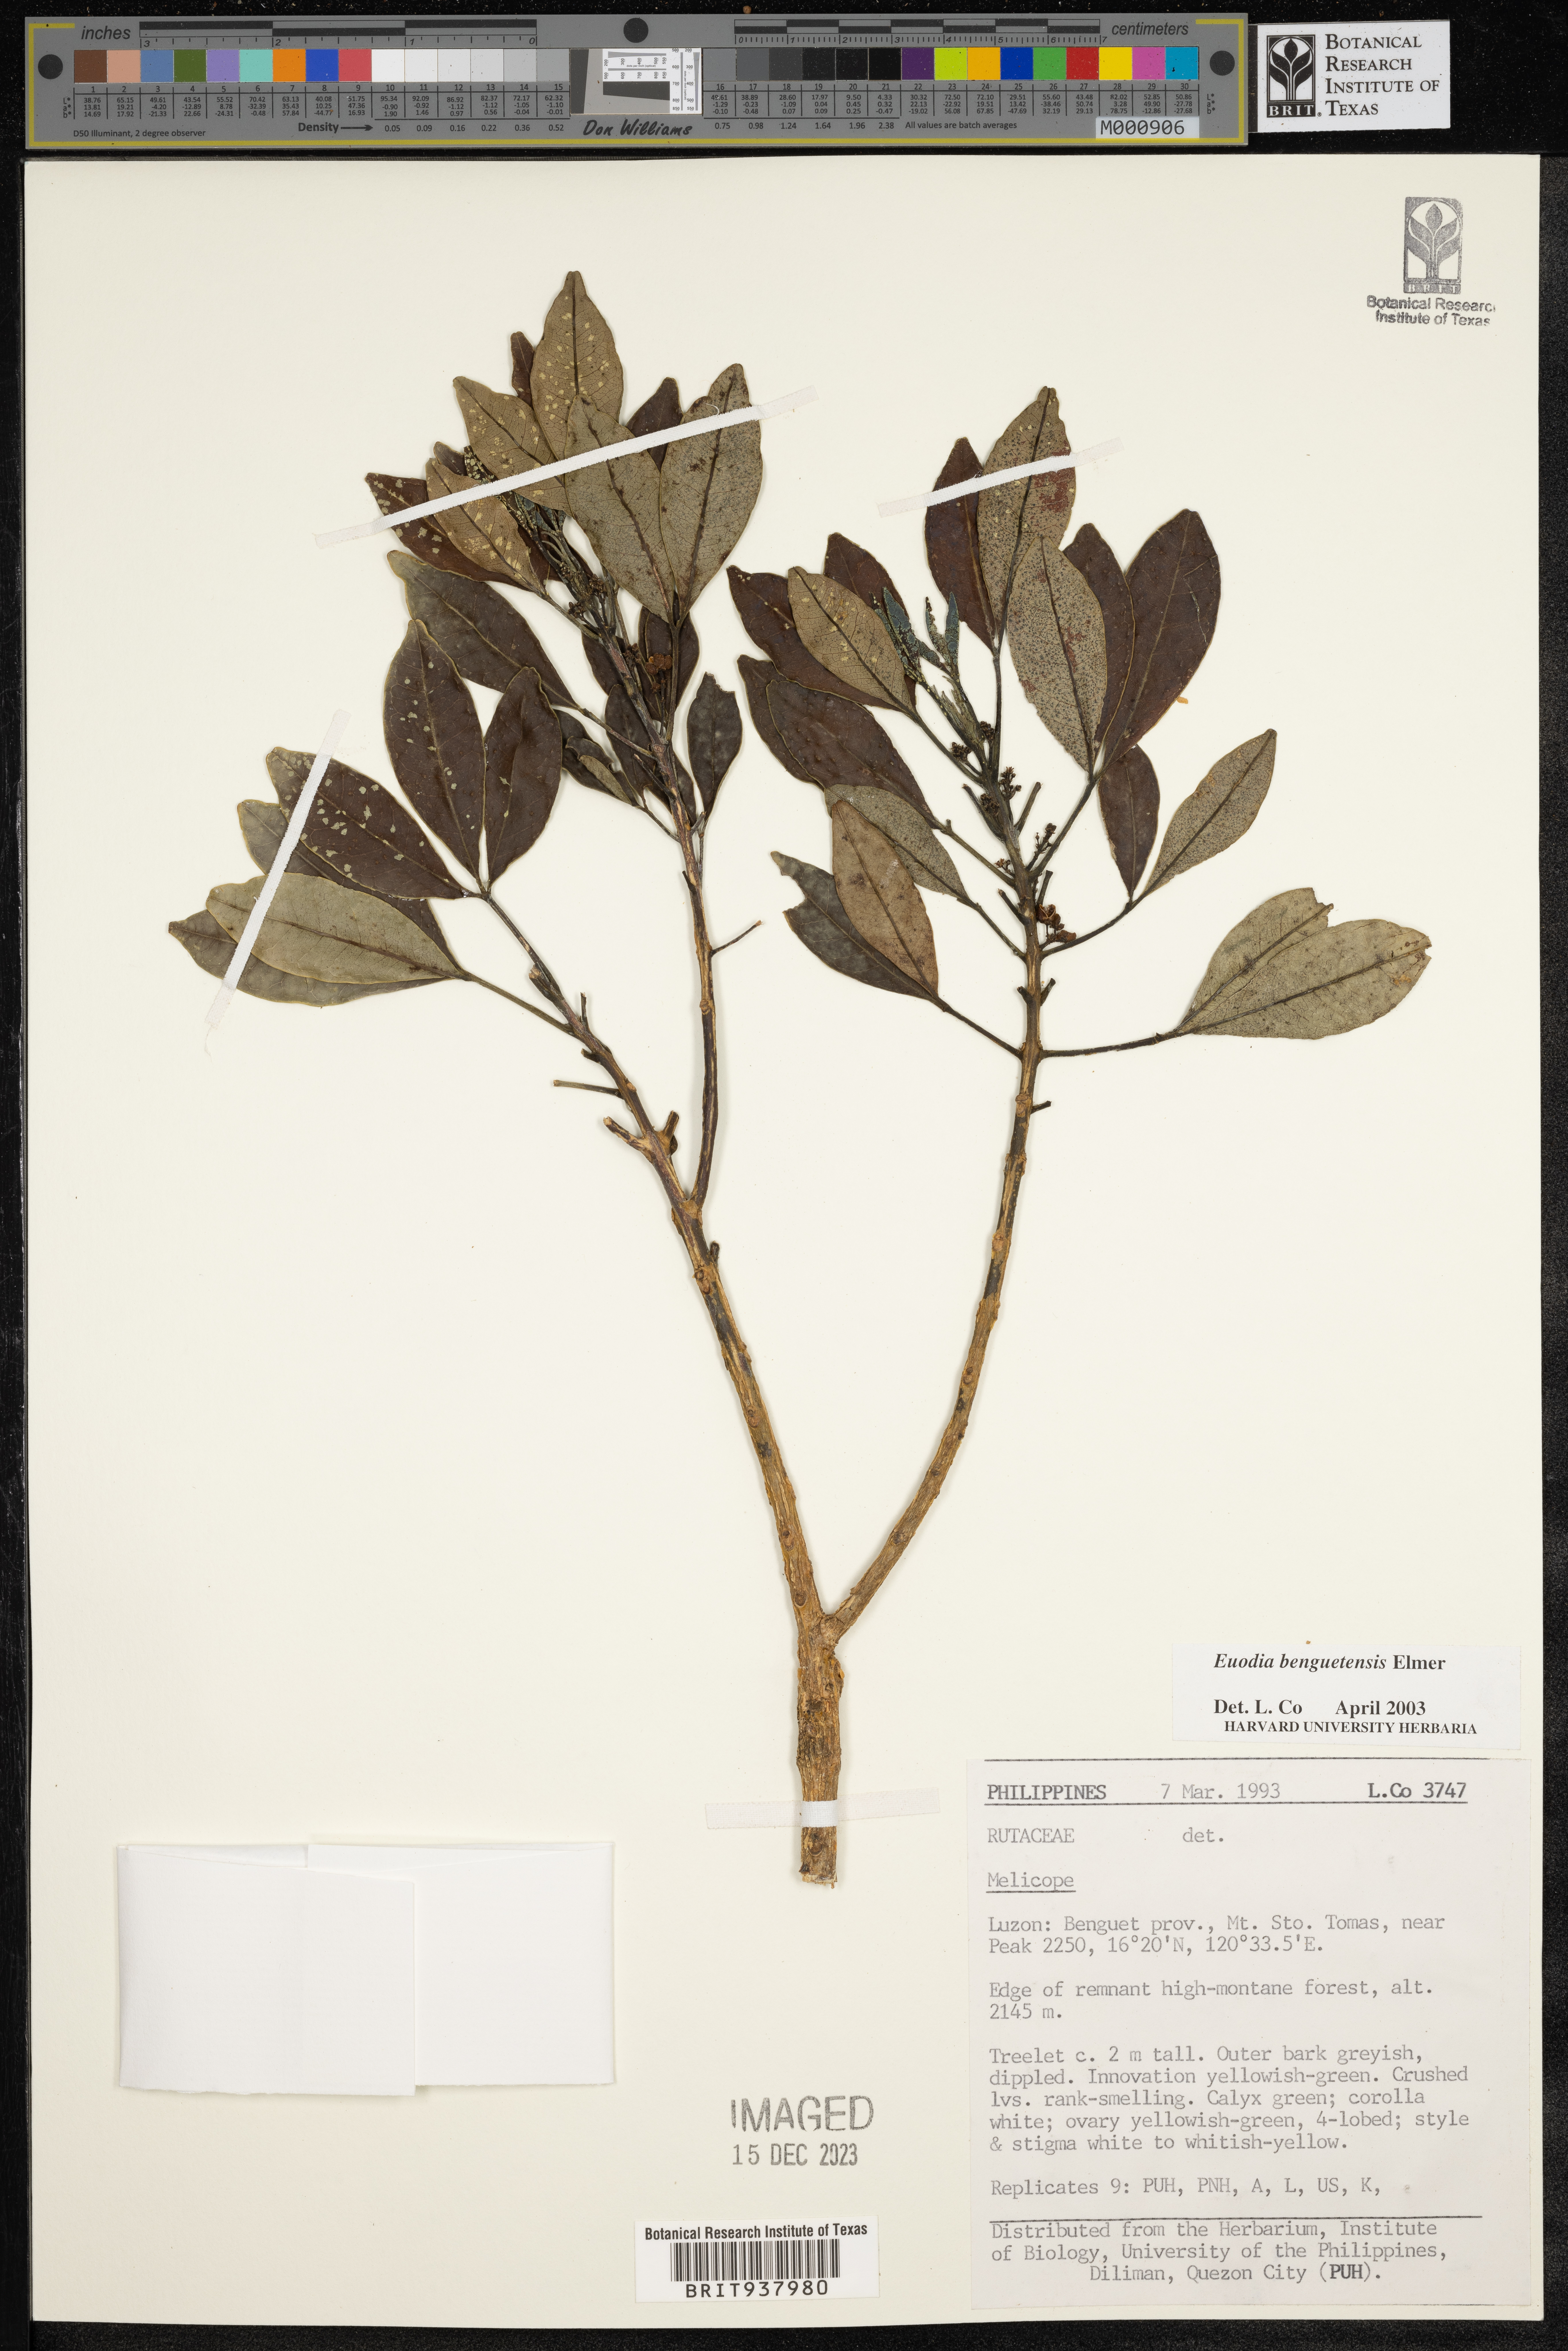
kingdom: Plantae
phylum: Tracheophyta
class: Magnoliopsida
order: Sapindales
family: Rutaceae
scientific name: Rutaceae
